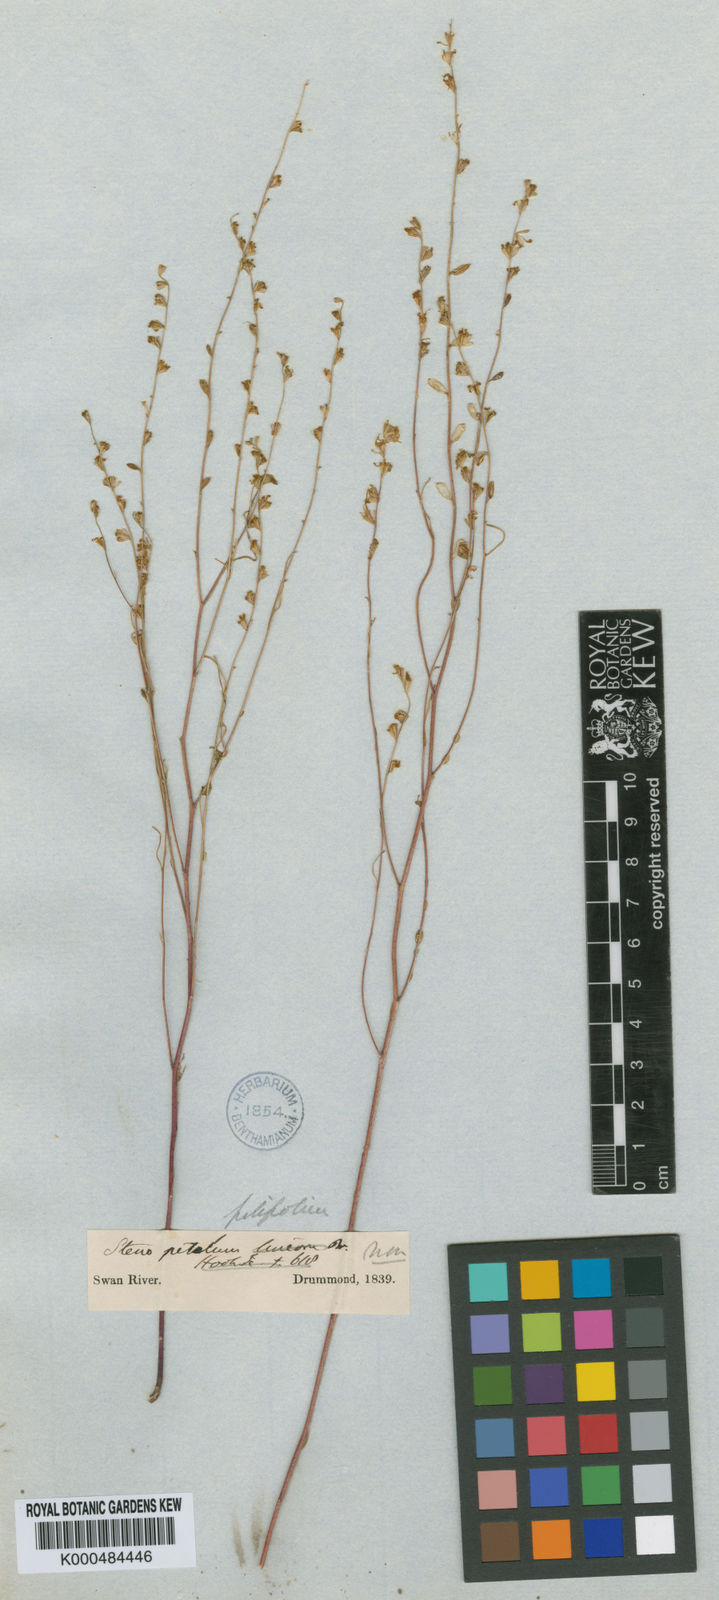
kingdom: Plantae
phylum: Tracheophyta
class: Magnoliopsida
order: Brassicales
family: Brassicaceae
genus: Stenopetalum
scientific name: Stenopetalum filifolium
